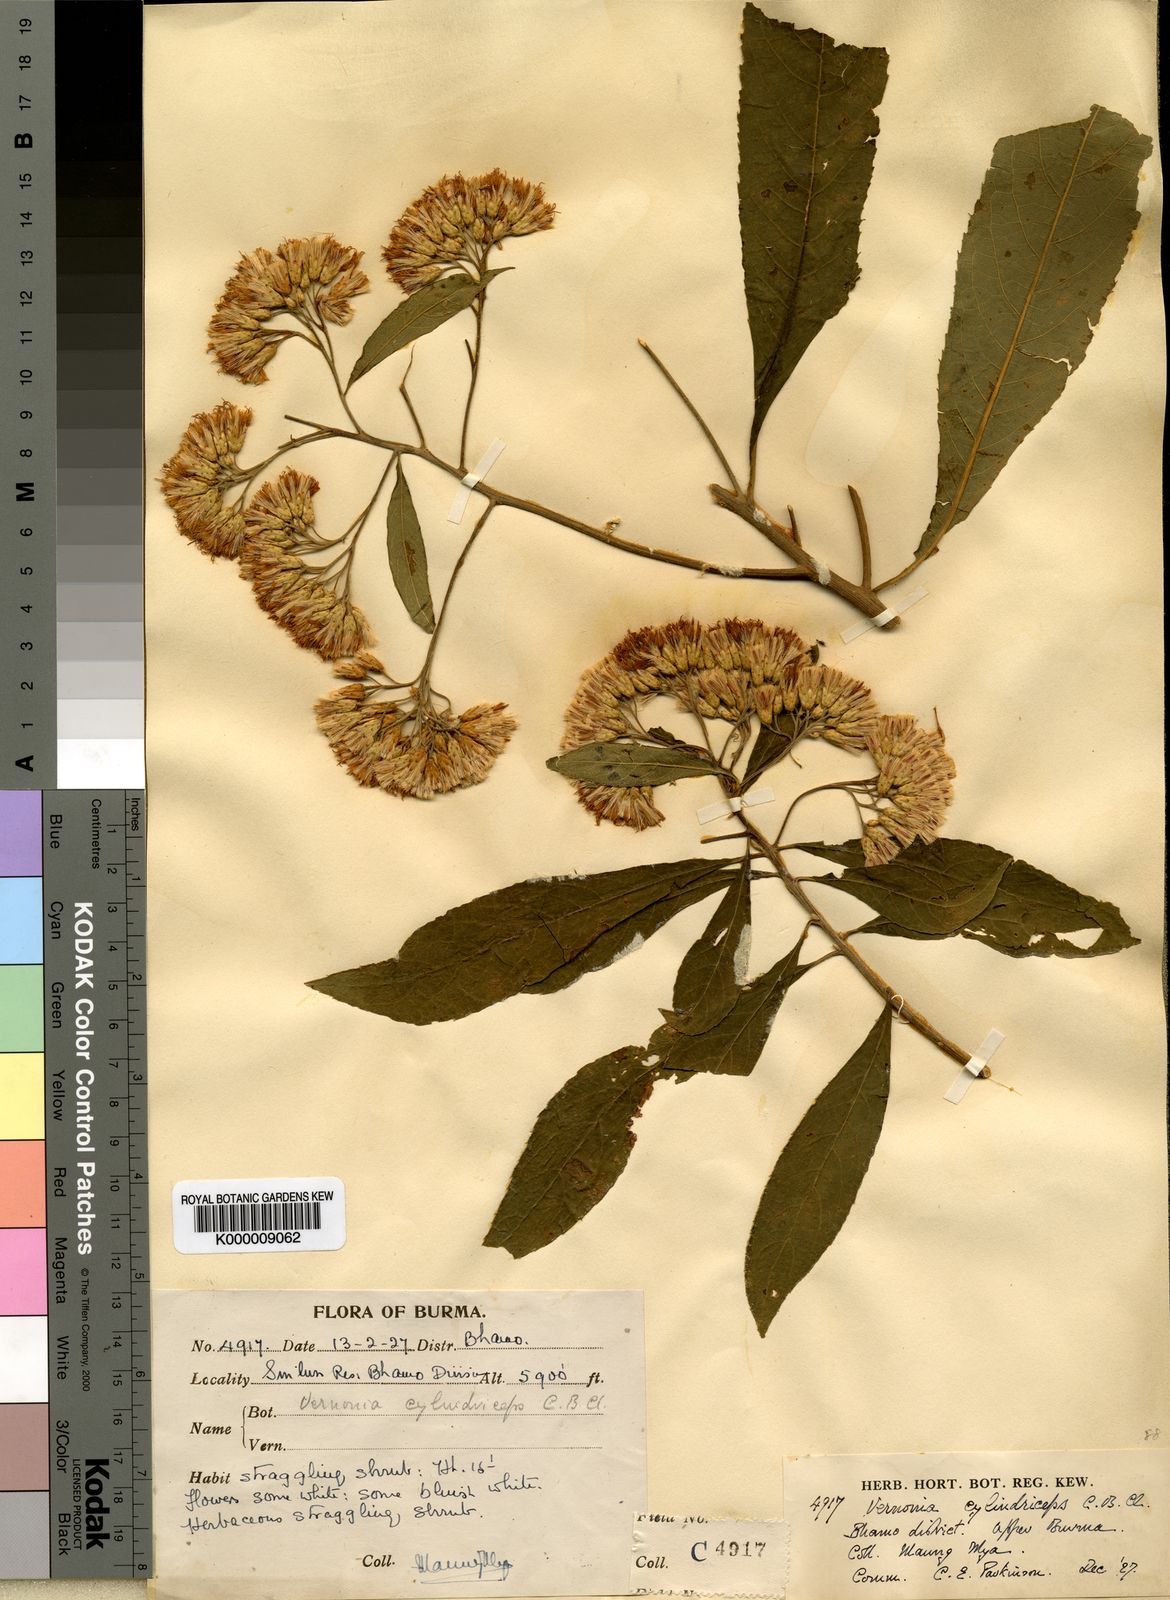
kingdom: Plantae
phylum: Tracheophyta
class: Magnoliopsida
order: Asterales
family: Asteraceae
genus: Gymnanthemum
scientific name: Gymnanthemum extensum
